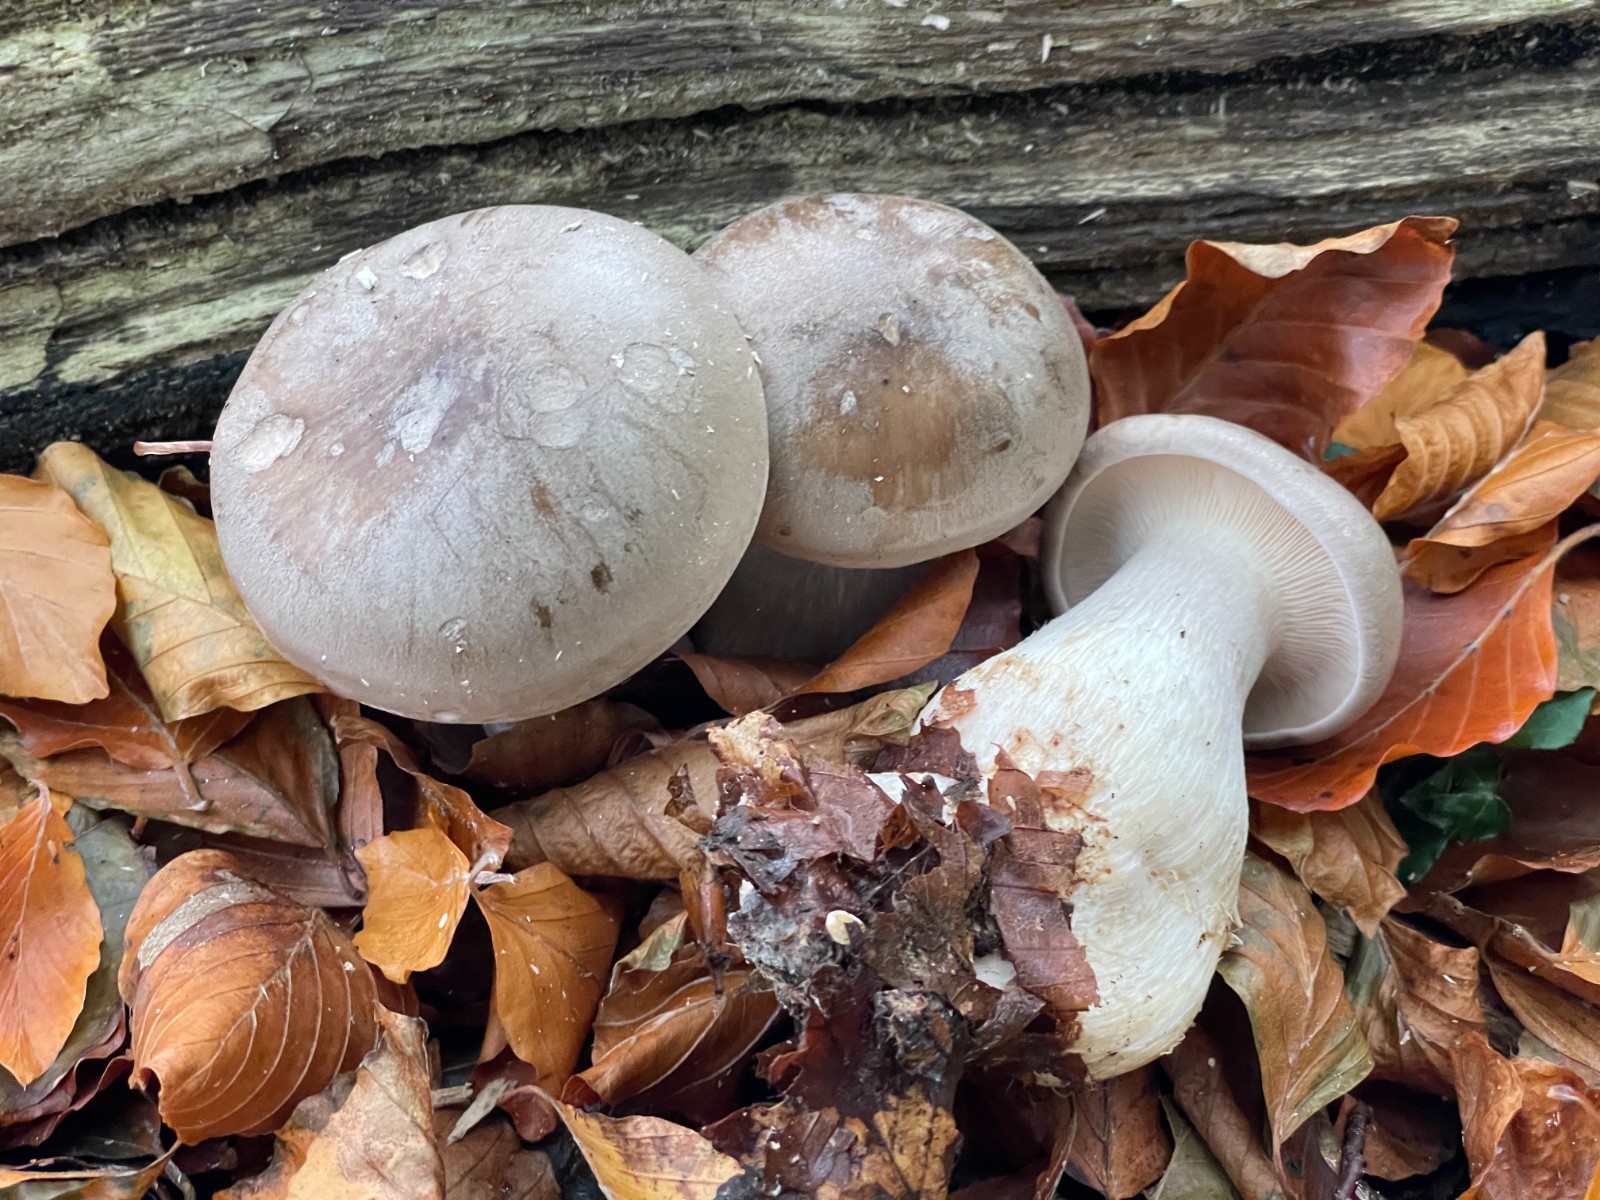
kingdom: Fungi
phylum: Basidiomycota
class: Agaricomycetes
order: Agaricales
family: Tricholomataceae
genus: Clitocybe
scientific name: Clitocybe nebularis
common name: tåge-tragthat
